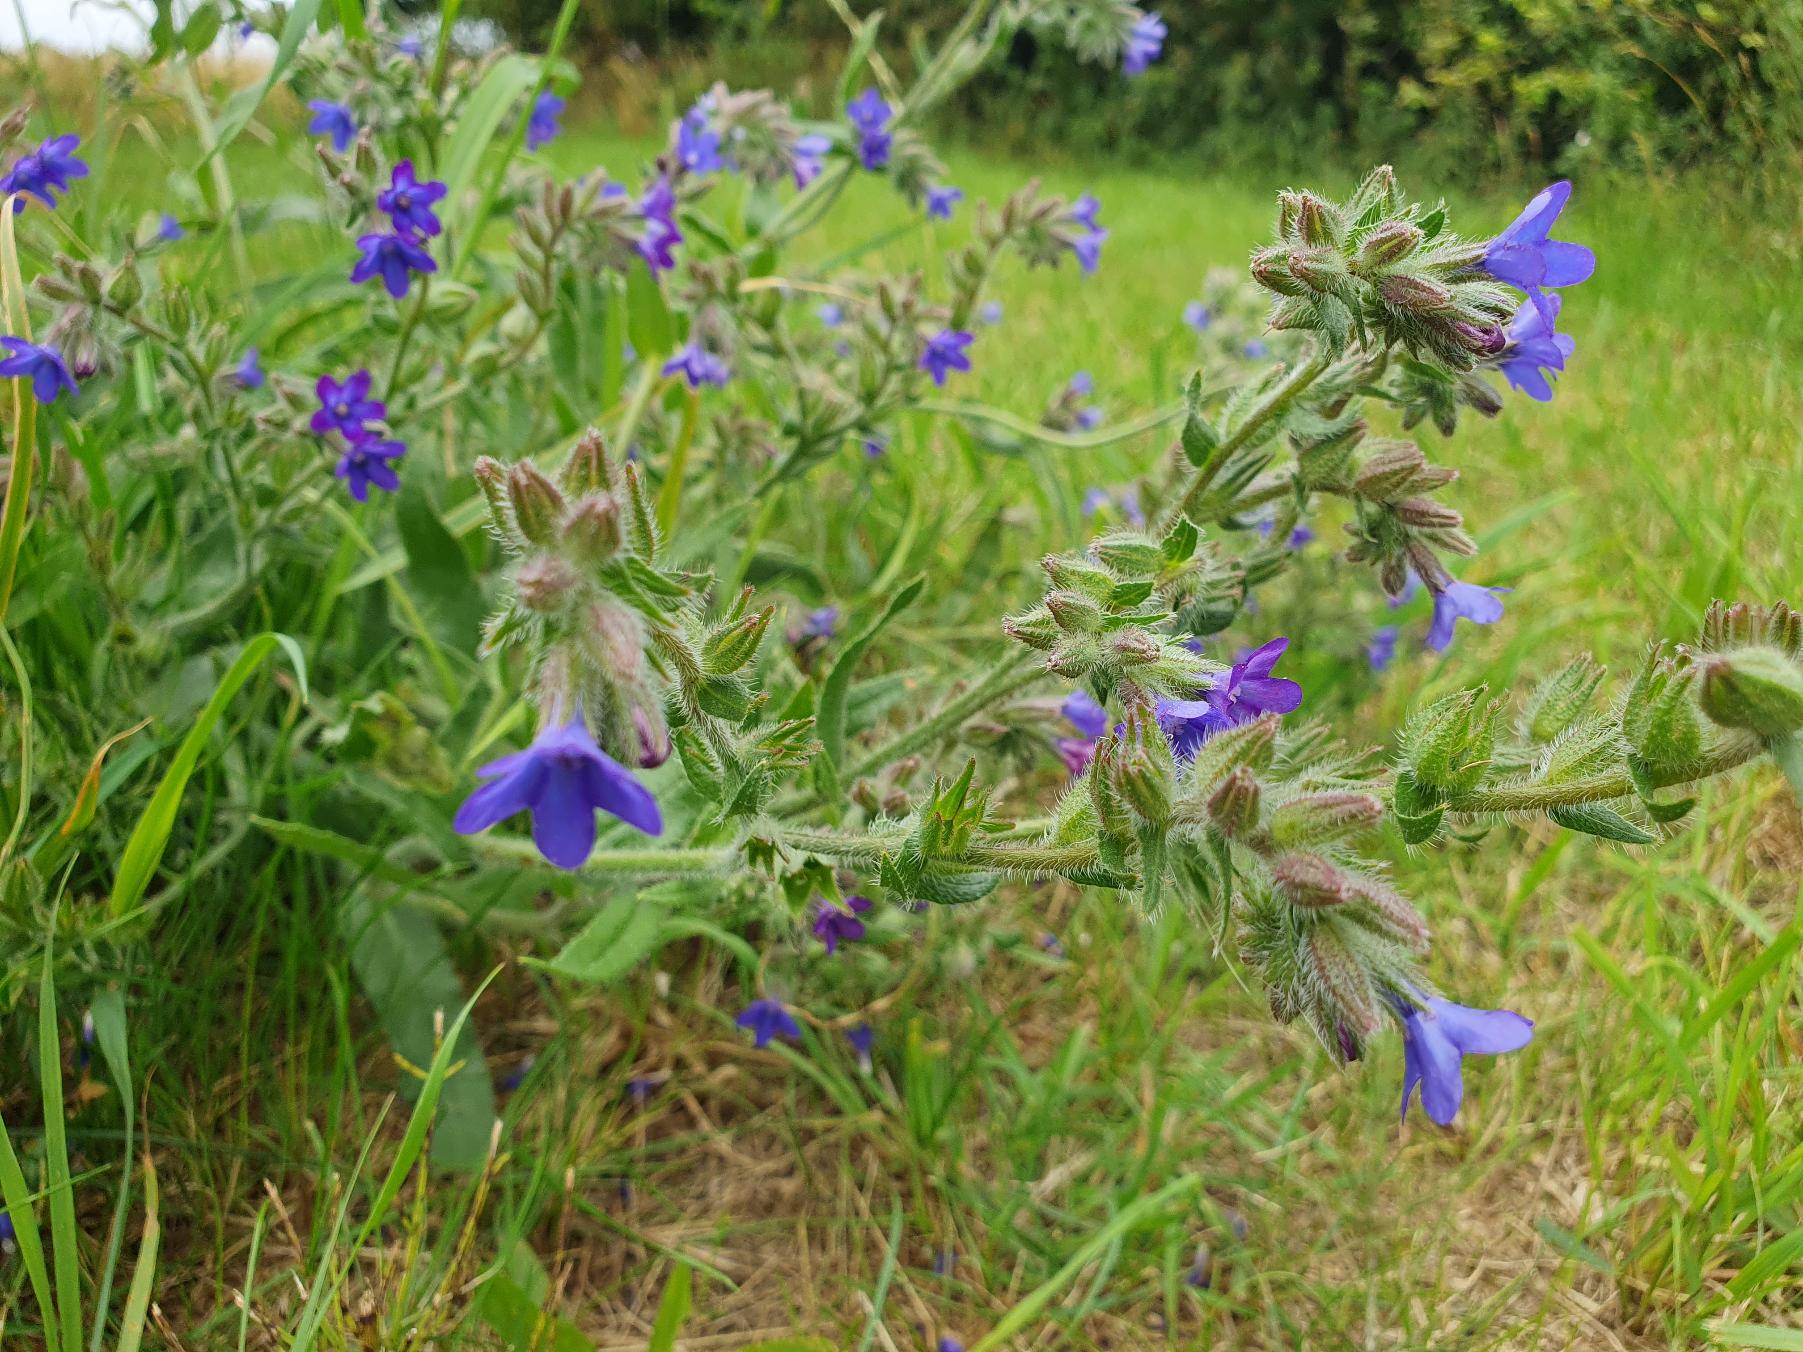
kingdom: Plantae
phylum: Tracheophyta
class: Magnoliopsida
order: Boraginales
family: Boraginaceae
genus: Anchusa
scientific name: Anchusa officinalis
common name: Læge-oksetunge
